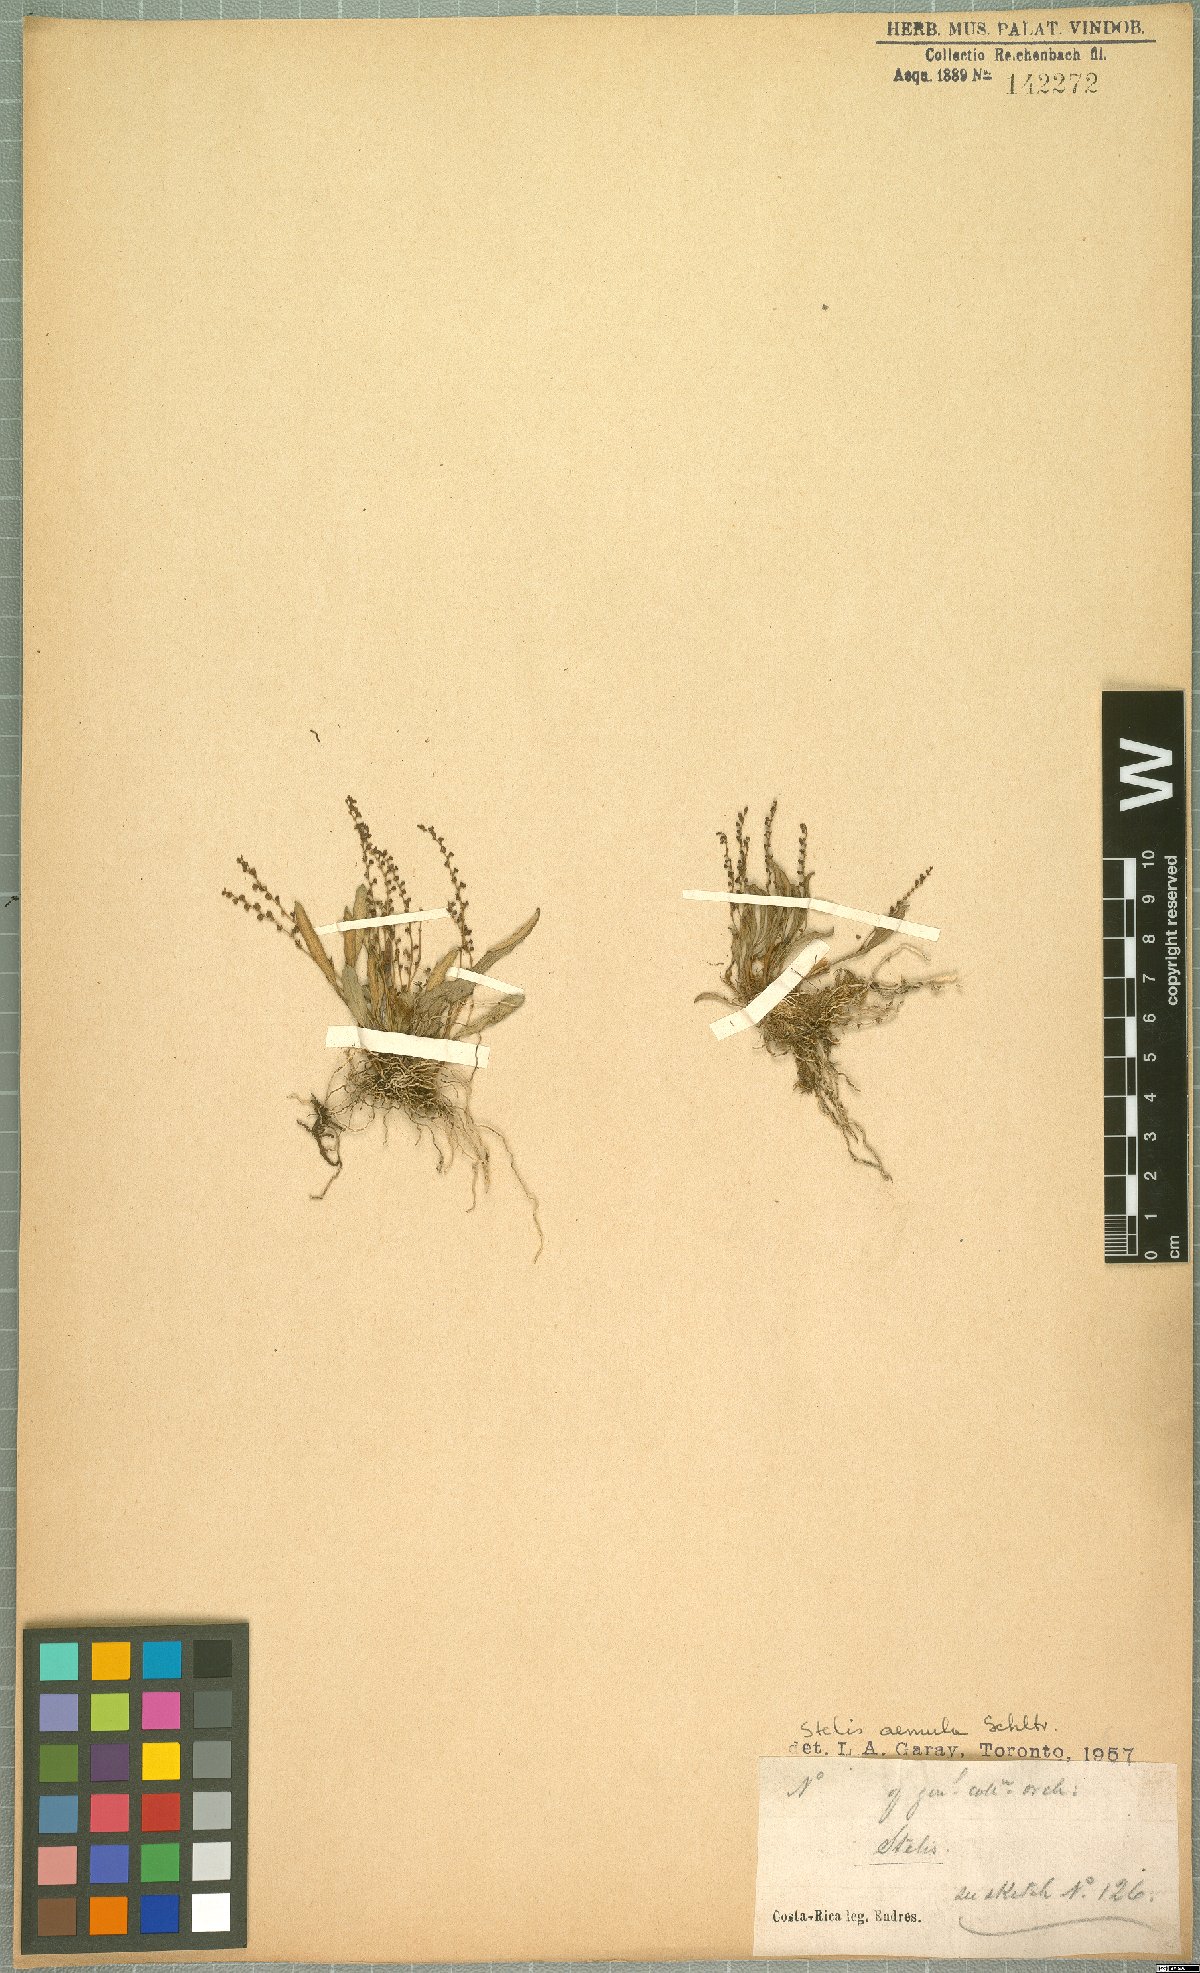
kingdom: Plantae
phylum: Tracheophyta
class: Liliopsida
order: Asparagales
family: Orchidaceae
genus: Stelis
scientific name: Stelis aemula
